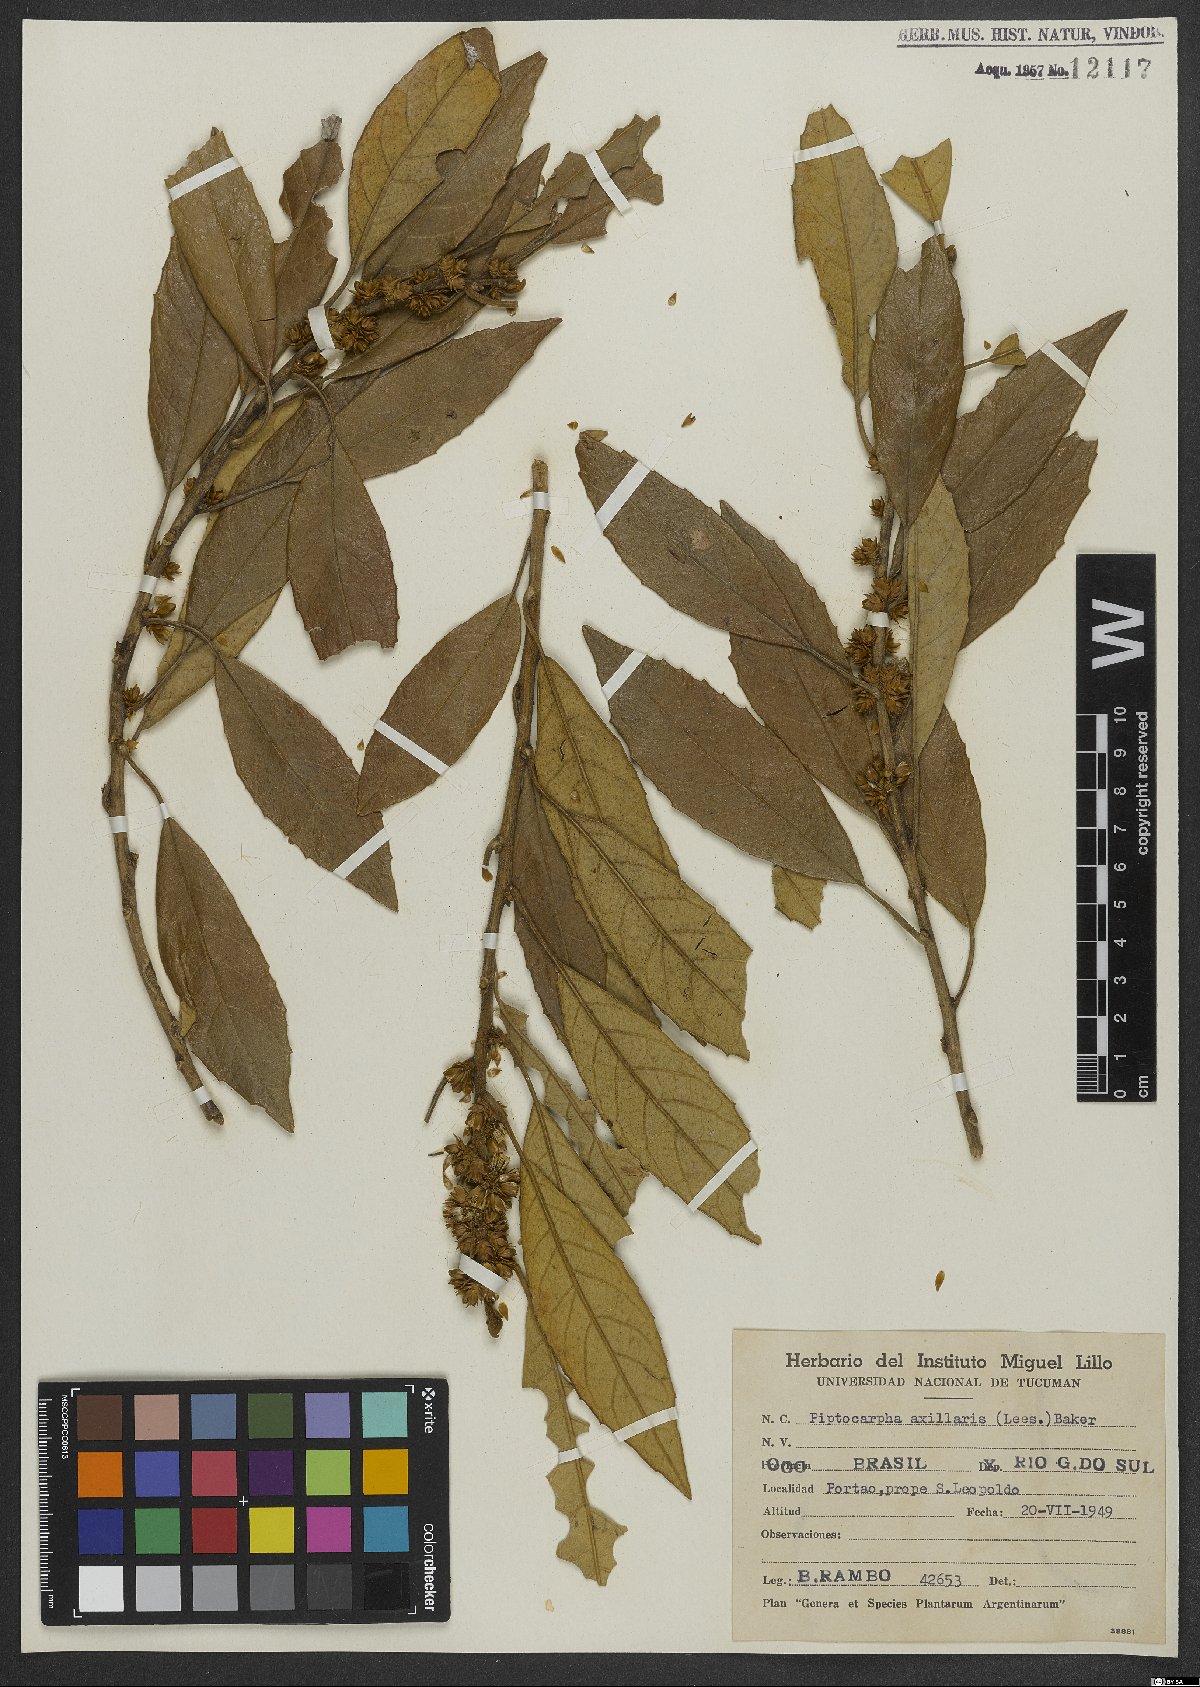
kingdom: Plantae
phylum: Tracheophyta
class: Magnoliopsida
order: Asterales
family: Asteraceae
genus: Piptocarpha
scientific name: Piptocarpha axillaris
